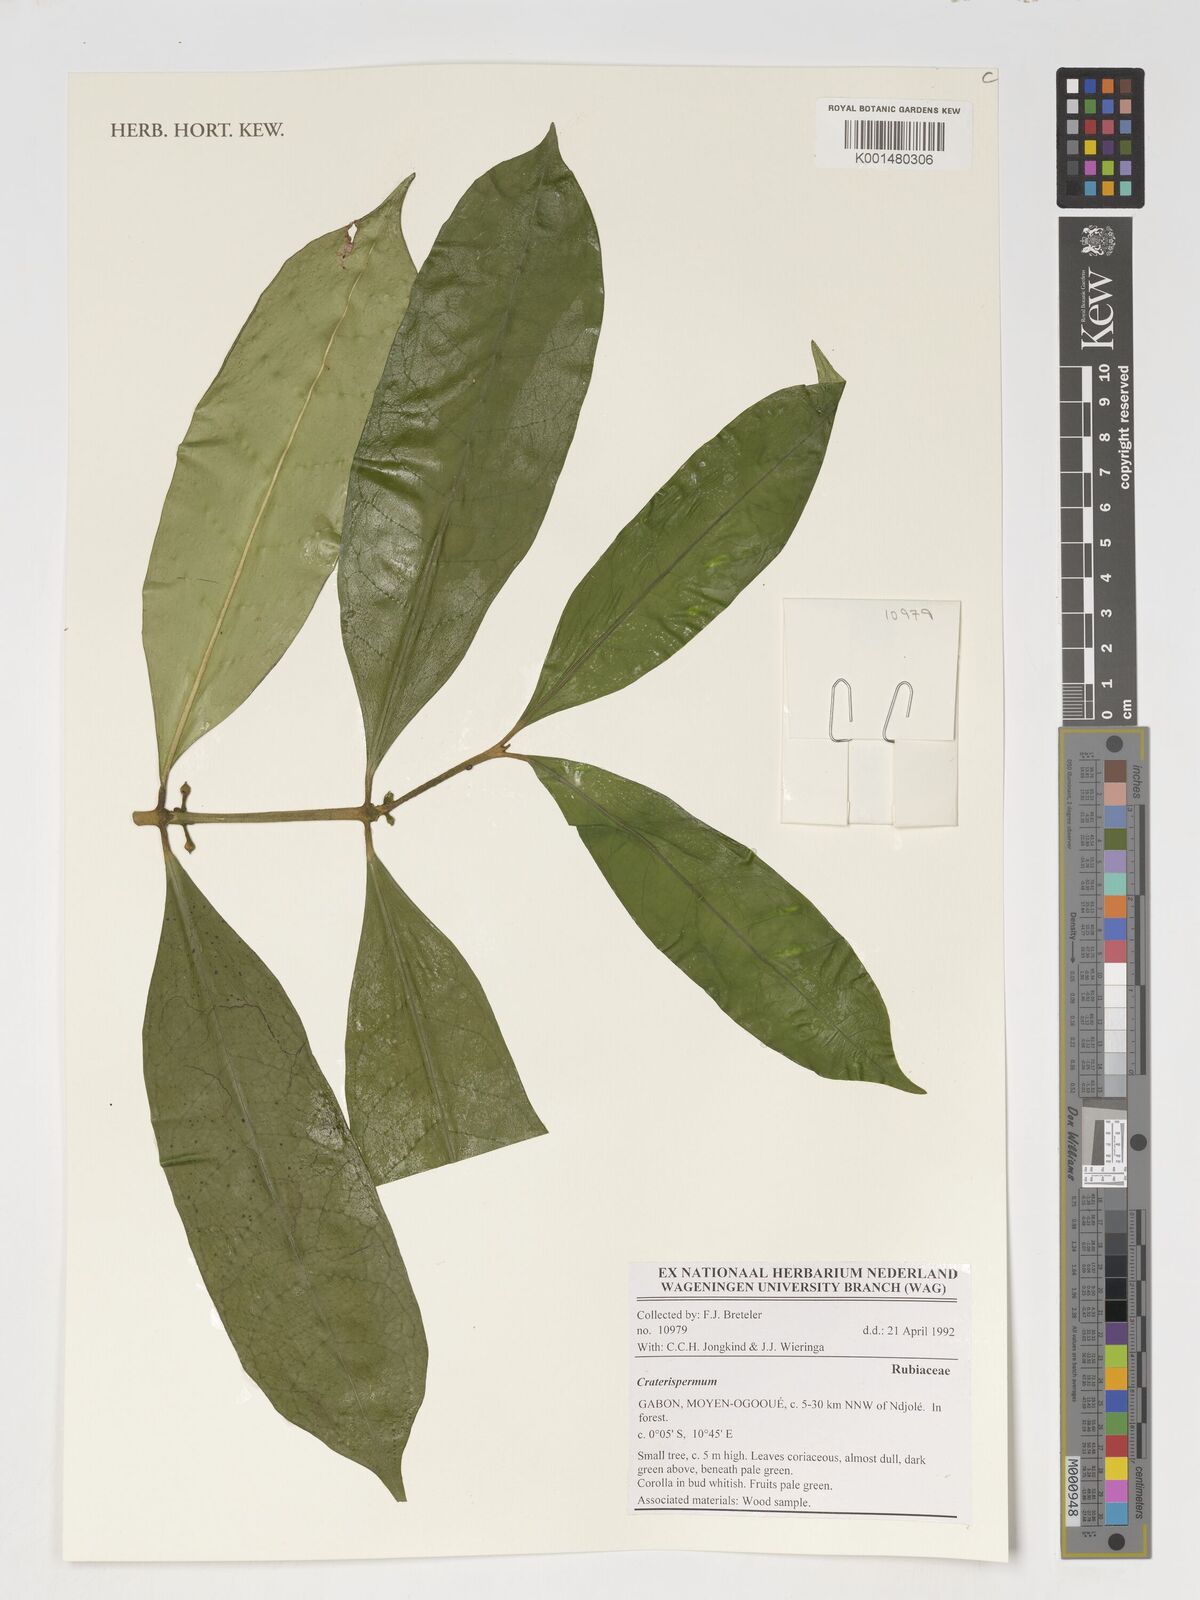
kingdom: Plantae
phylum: Tracheophyta
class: Magnoliopsida
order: Gentianales
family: Rubiaceae
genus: Craterispermum
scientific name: Craterispermum
